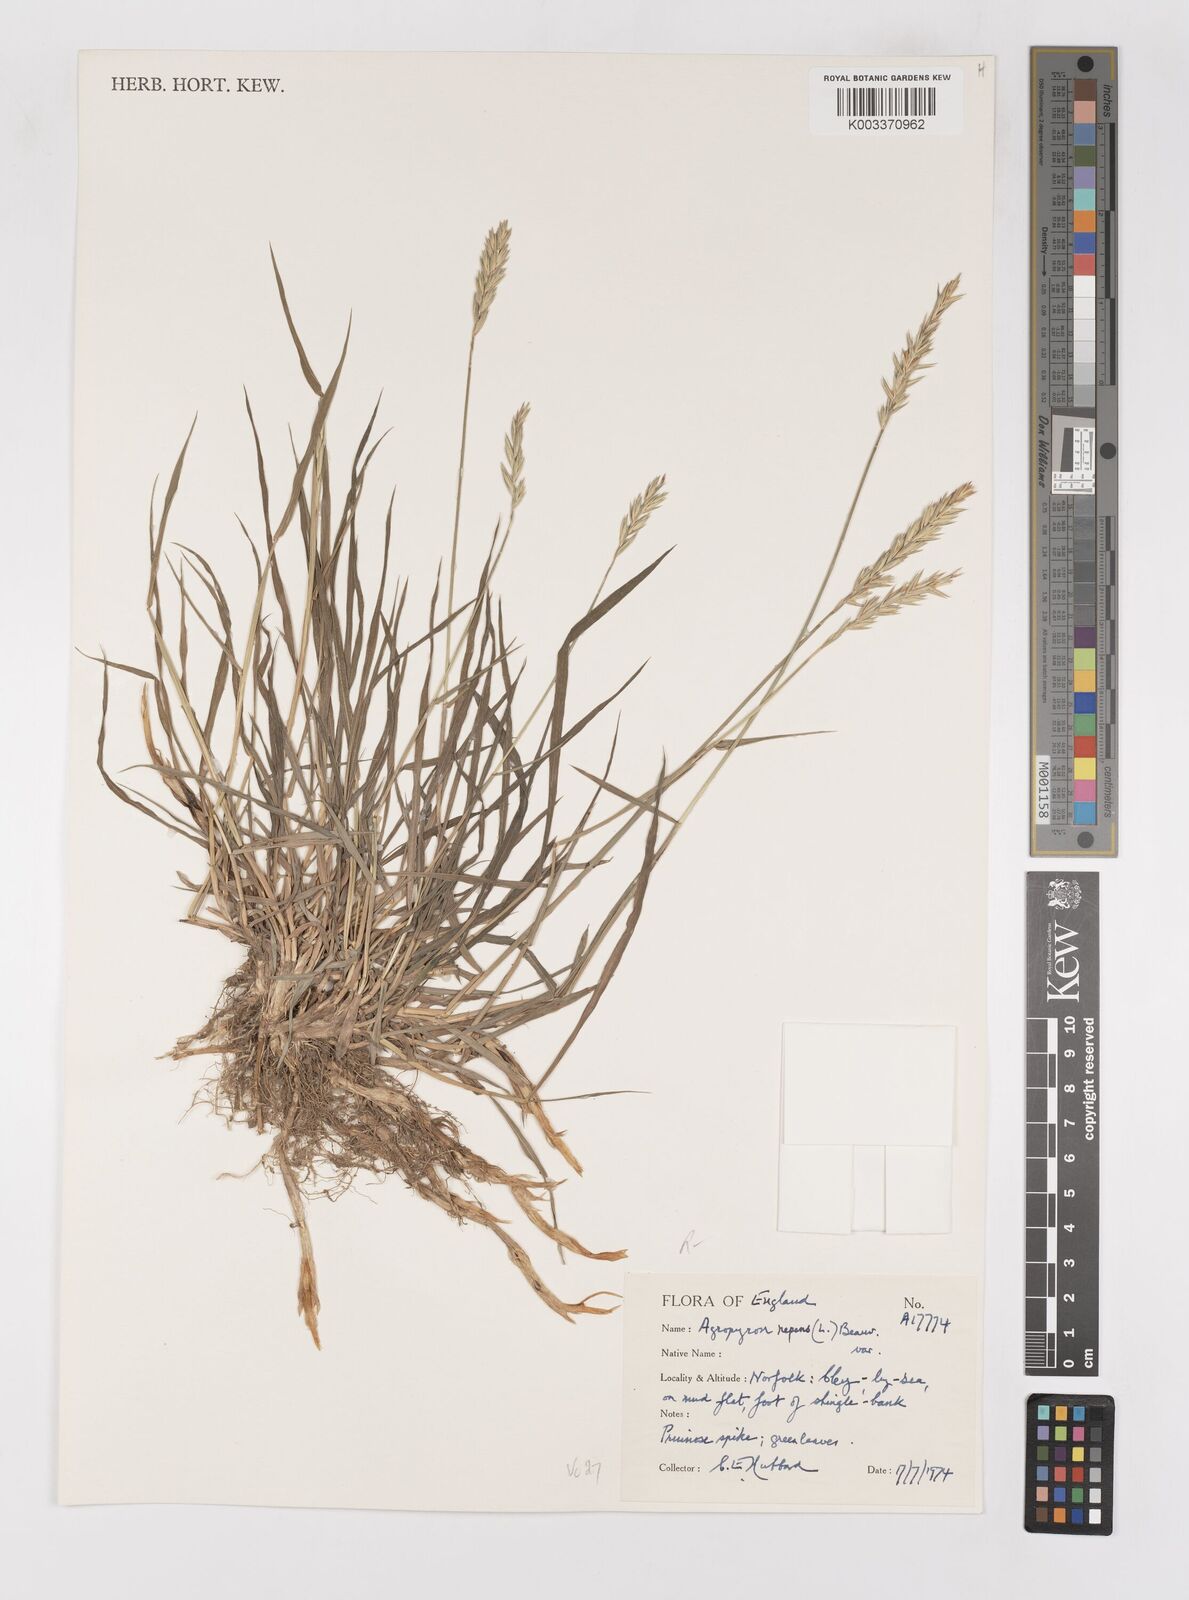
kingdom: Plantae
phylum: Tracheophyta
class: Liliopsida
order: Poales
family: Poaceae
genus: Elymus
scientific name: Elymus repens
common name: Quackgrass
